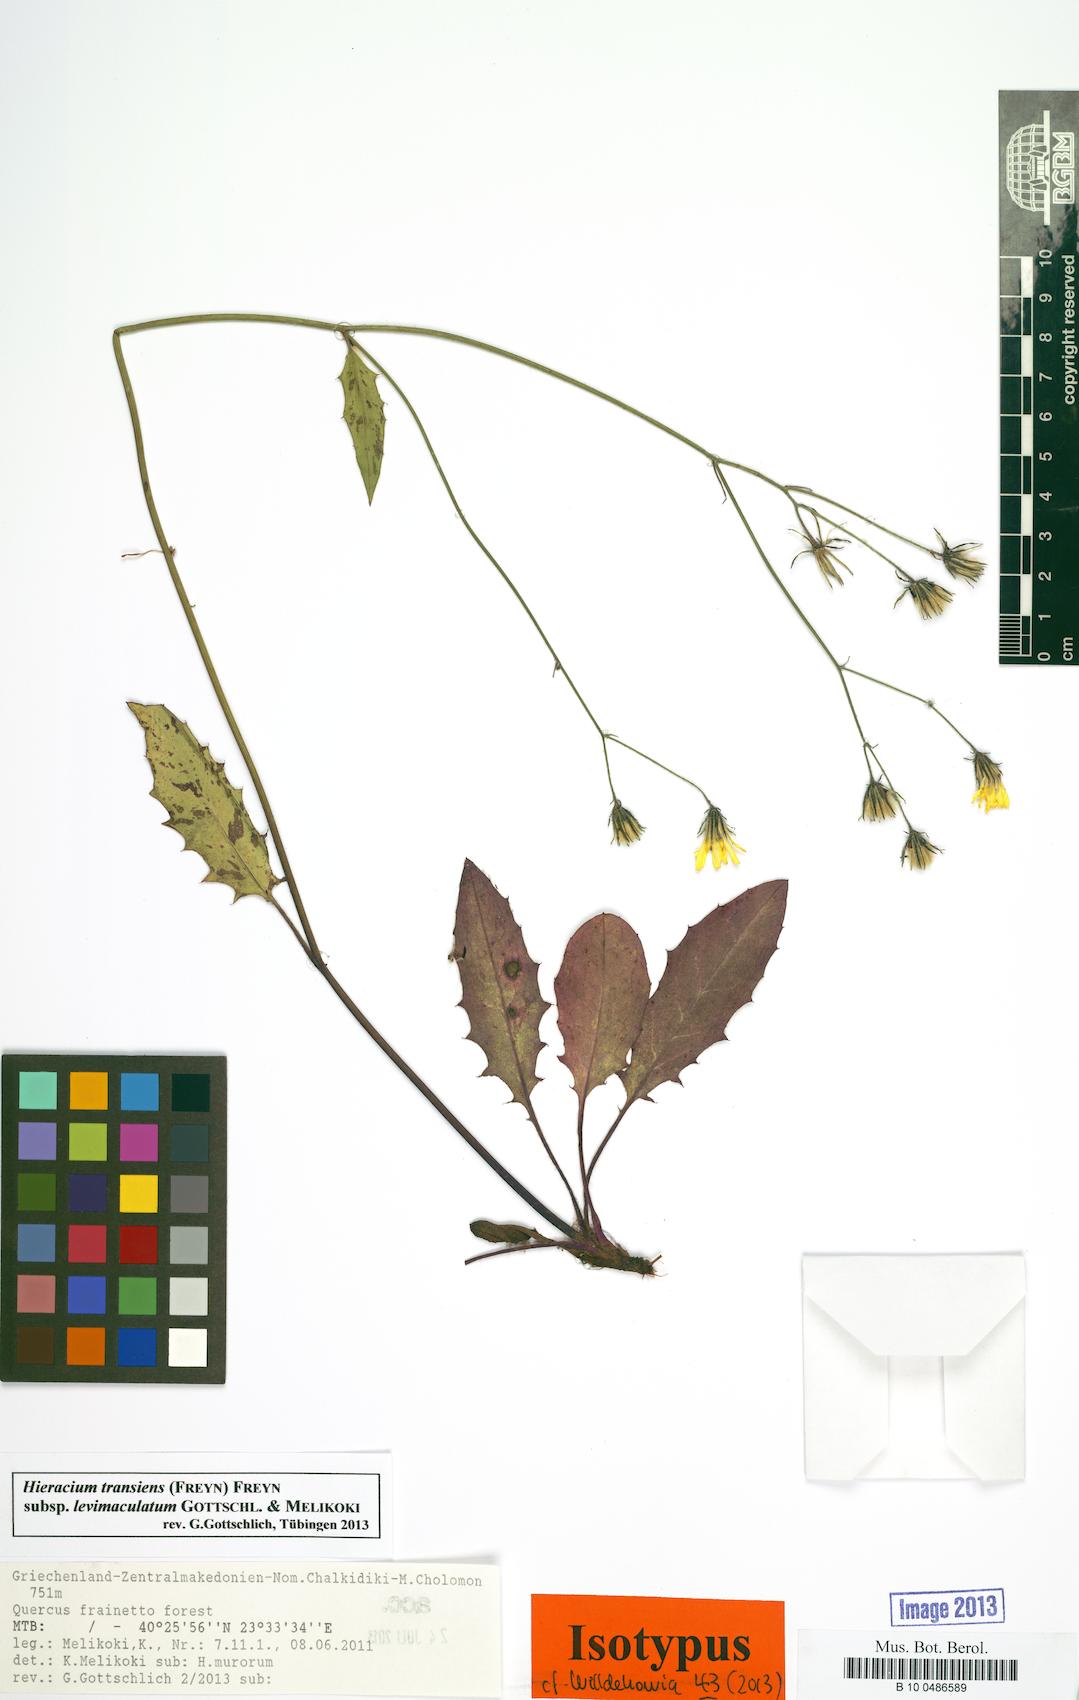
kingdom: Plantae
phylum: Tracheophyta
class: Magnoliopsida
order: Asterales
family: Asteraceae
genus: Hieracium
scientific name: Hieracium transiens
